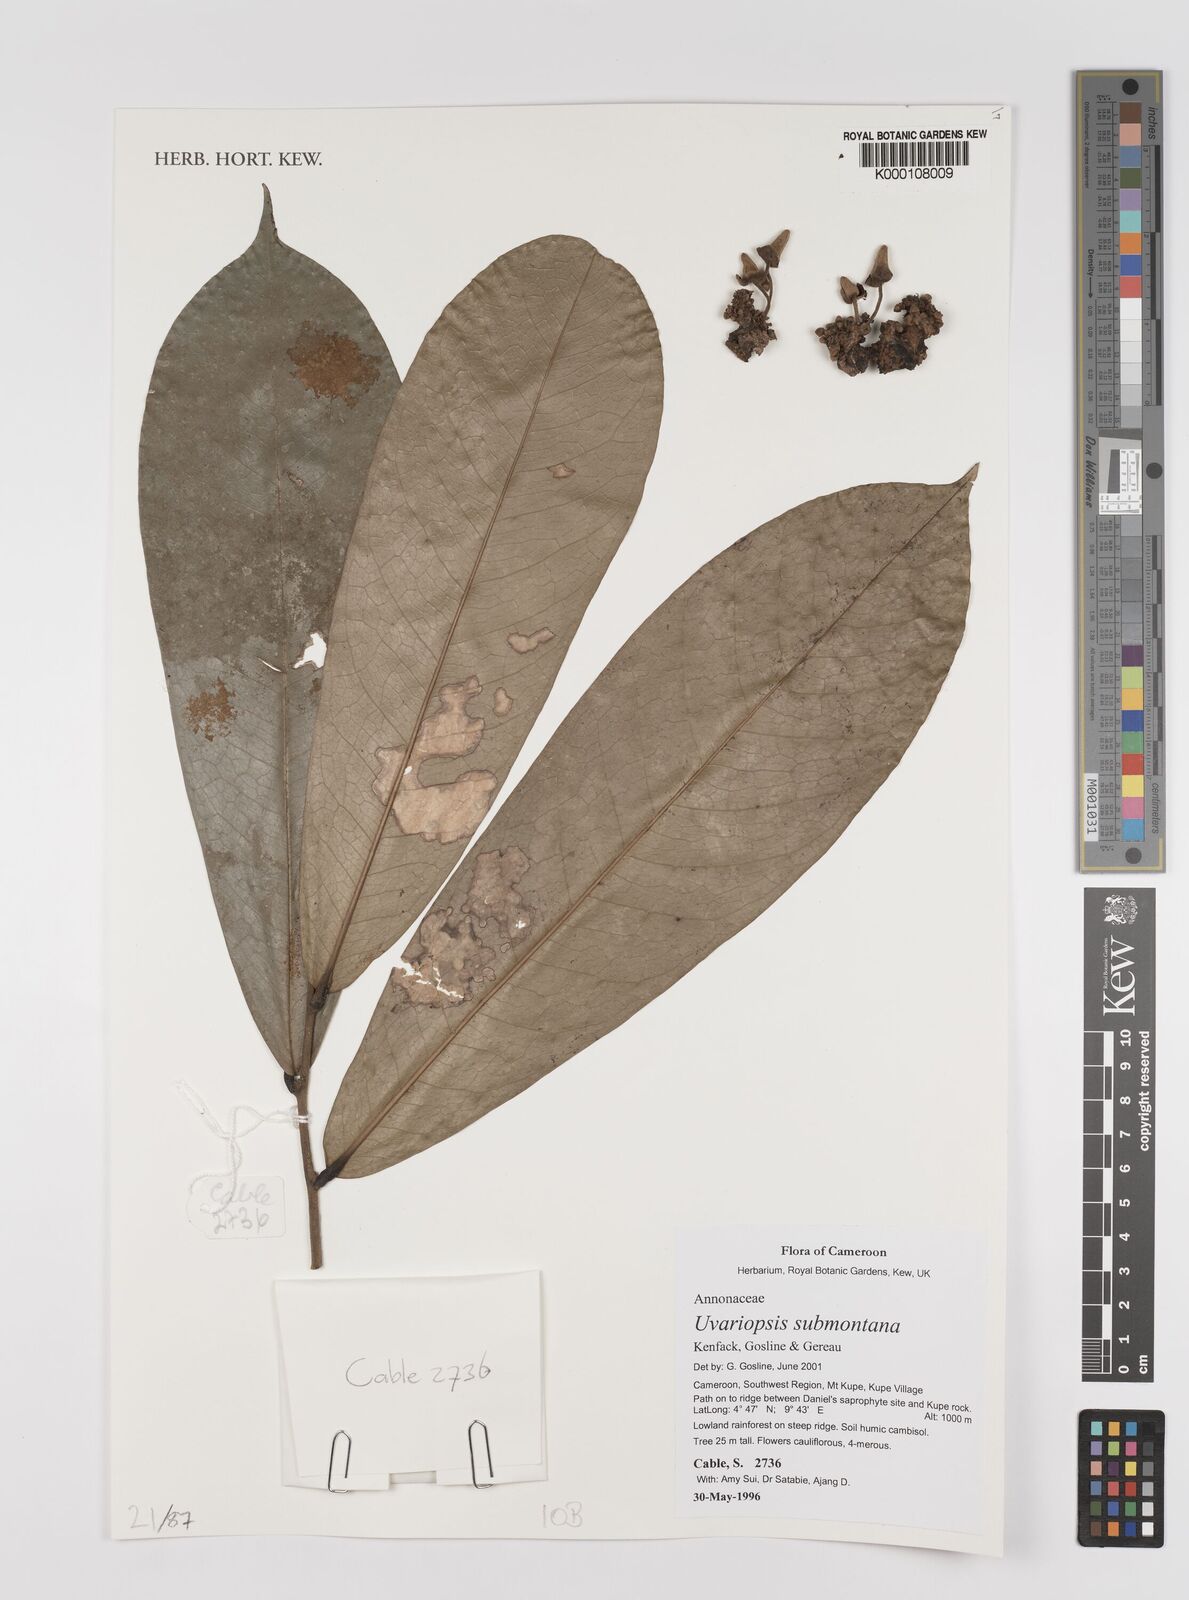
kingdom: Plantae
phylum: Tracheophyta
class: Magnoliopsida
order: Magnoliales
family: Annonaceae
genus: Uvariopsis
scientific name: Uvariopsis submontana
